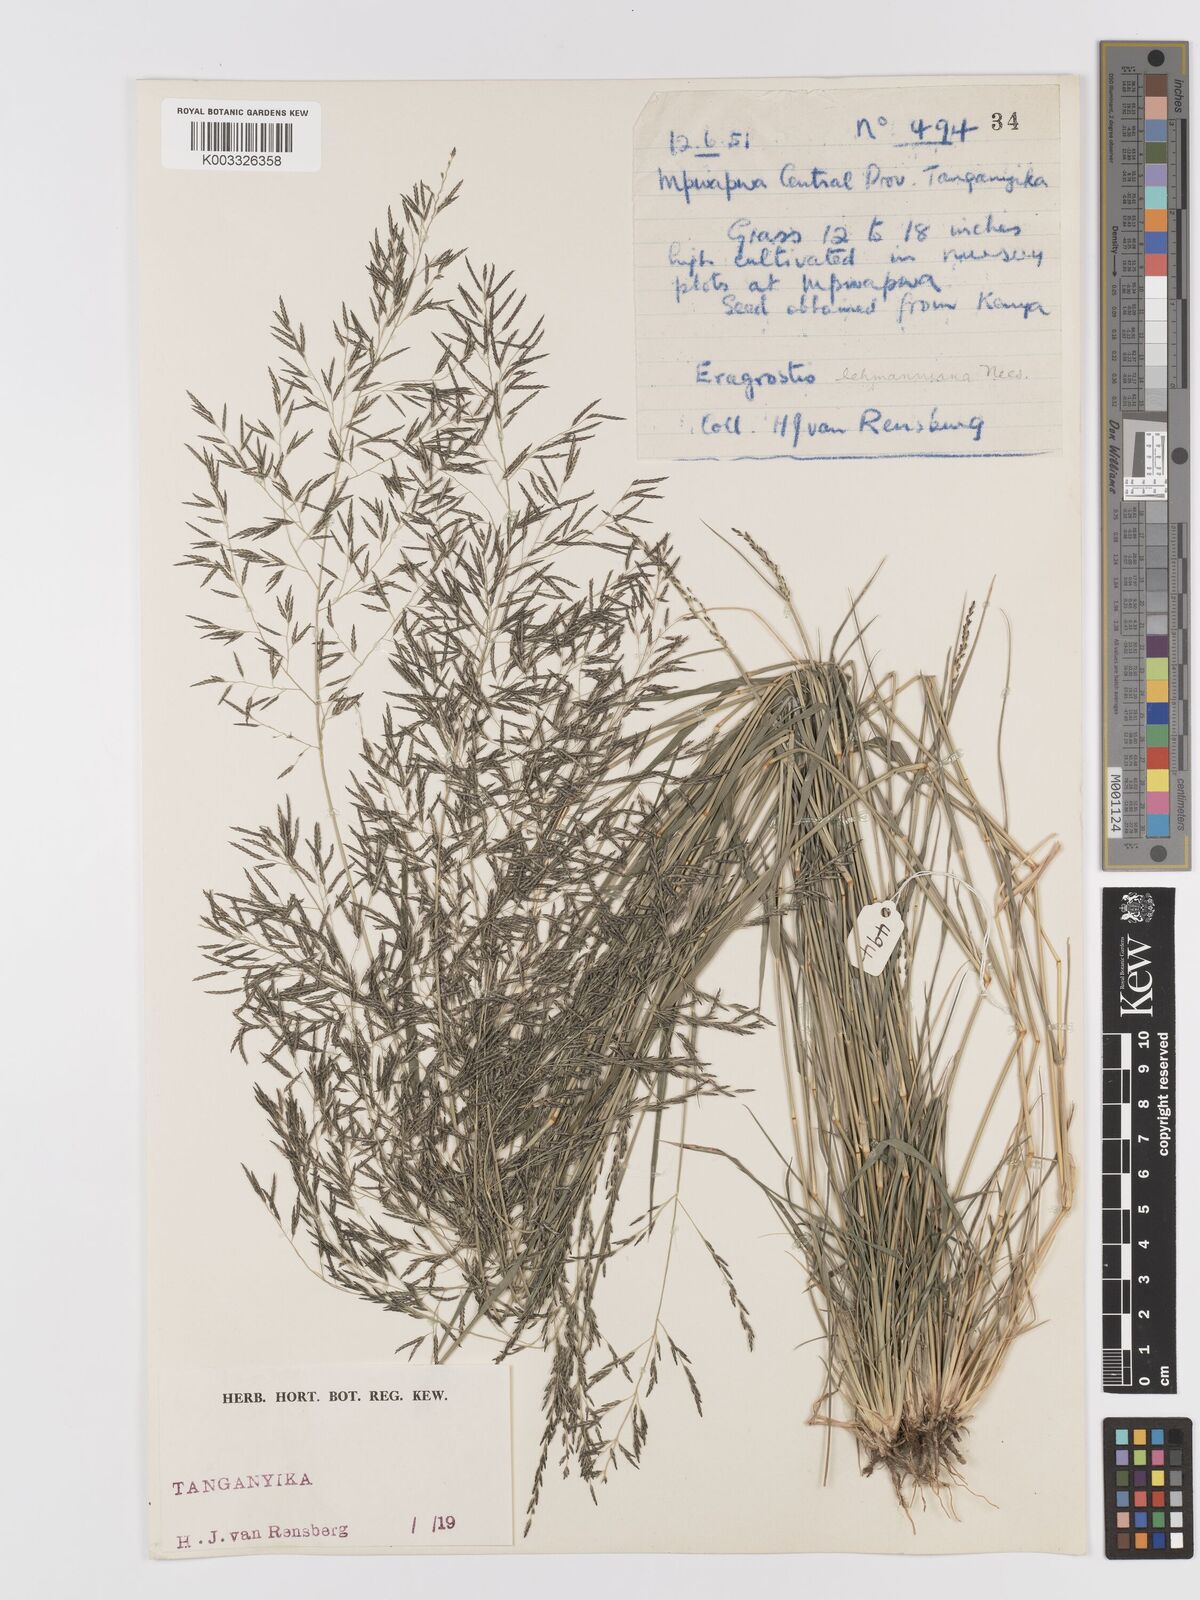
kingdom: Plantae
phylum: Tracheophyta
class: Liliopsida
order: Poales
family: Poaceae
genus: Eragrostis
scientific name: Eragrostis lehmanniana
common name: Lehmann lovegrass
